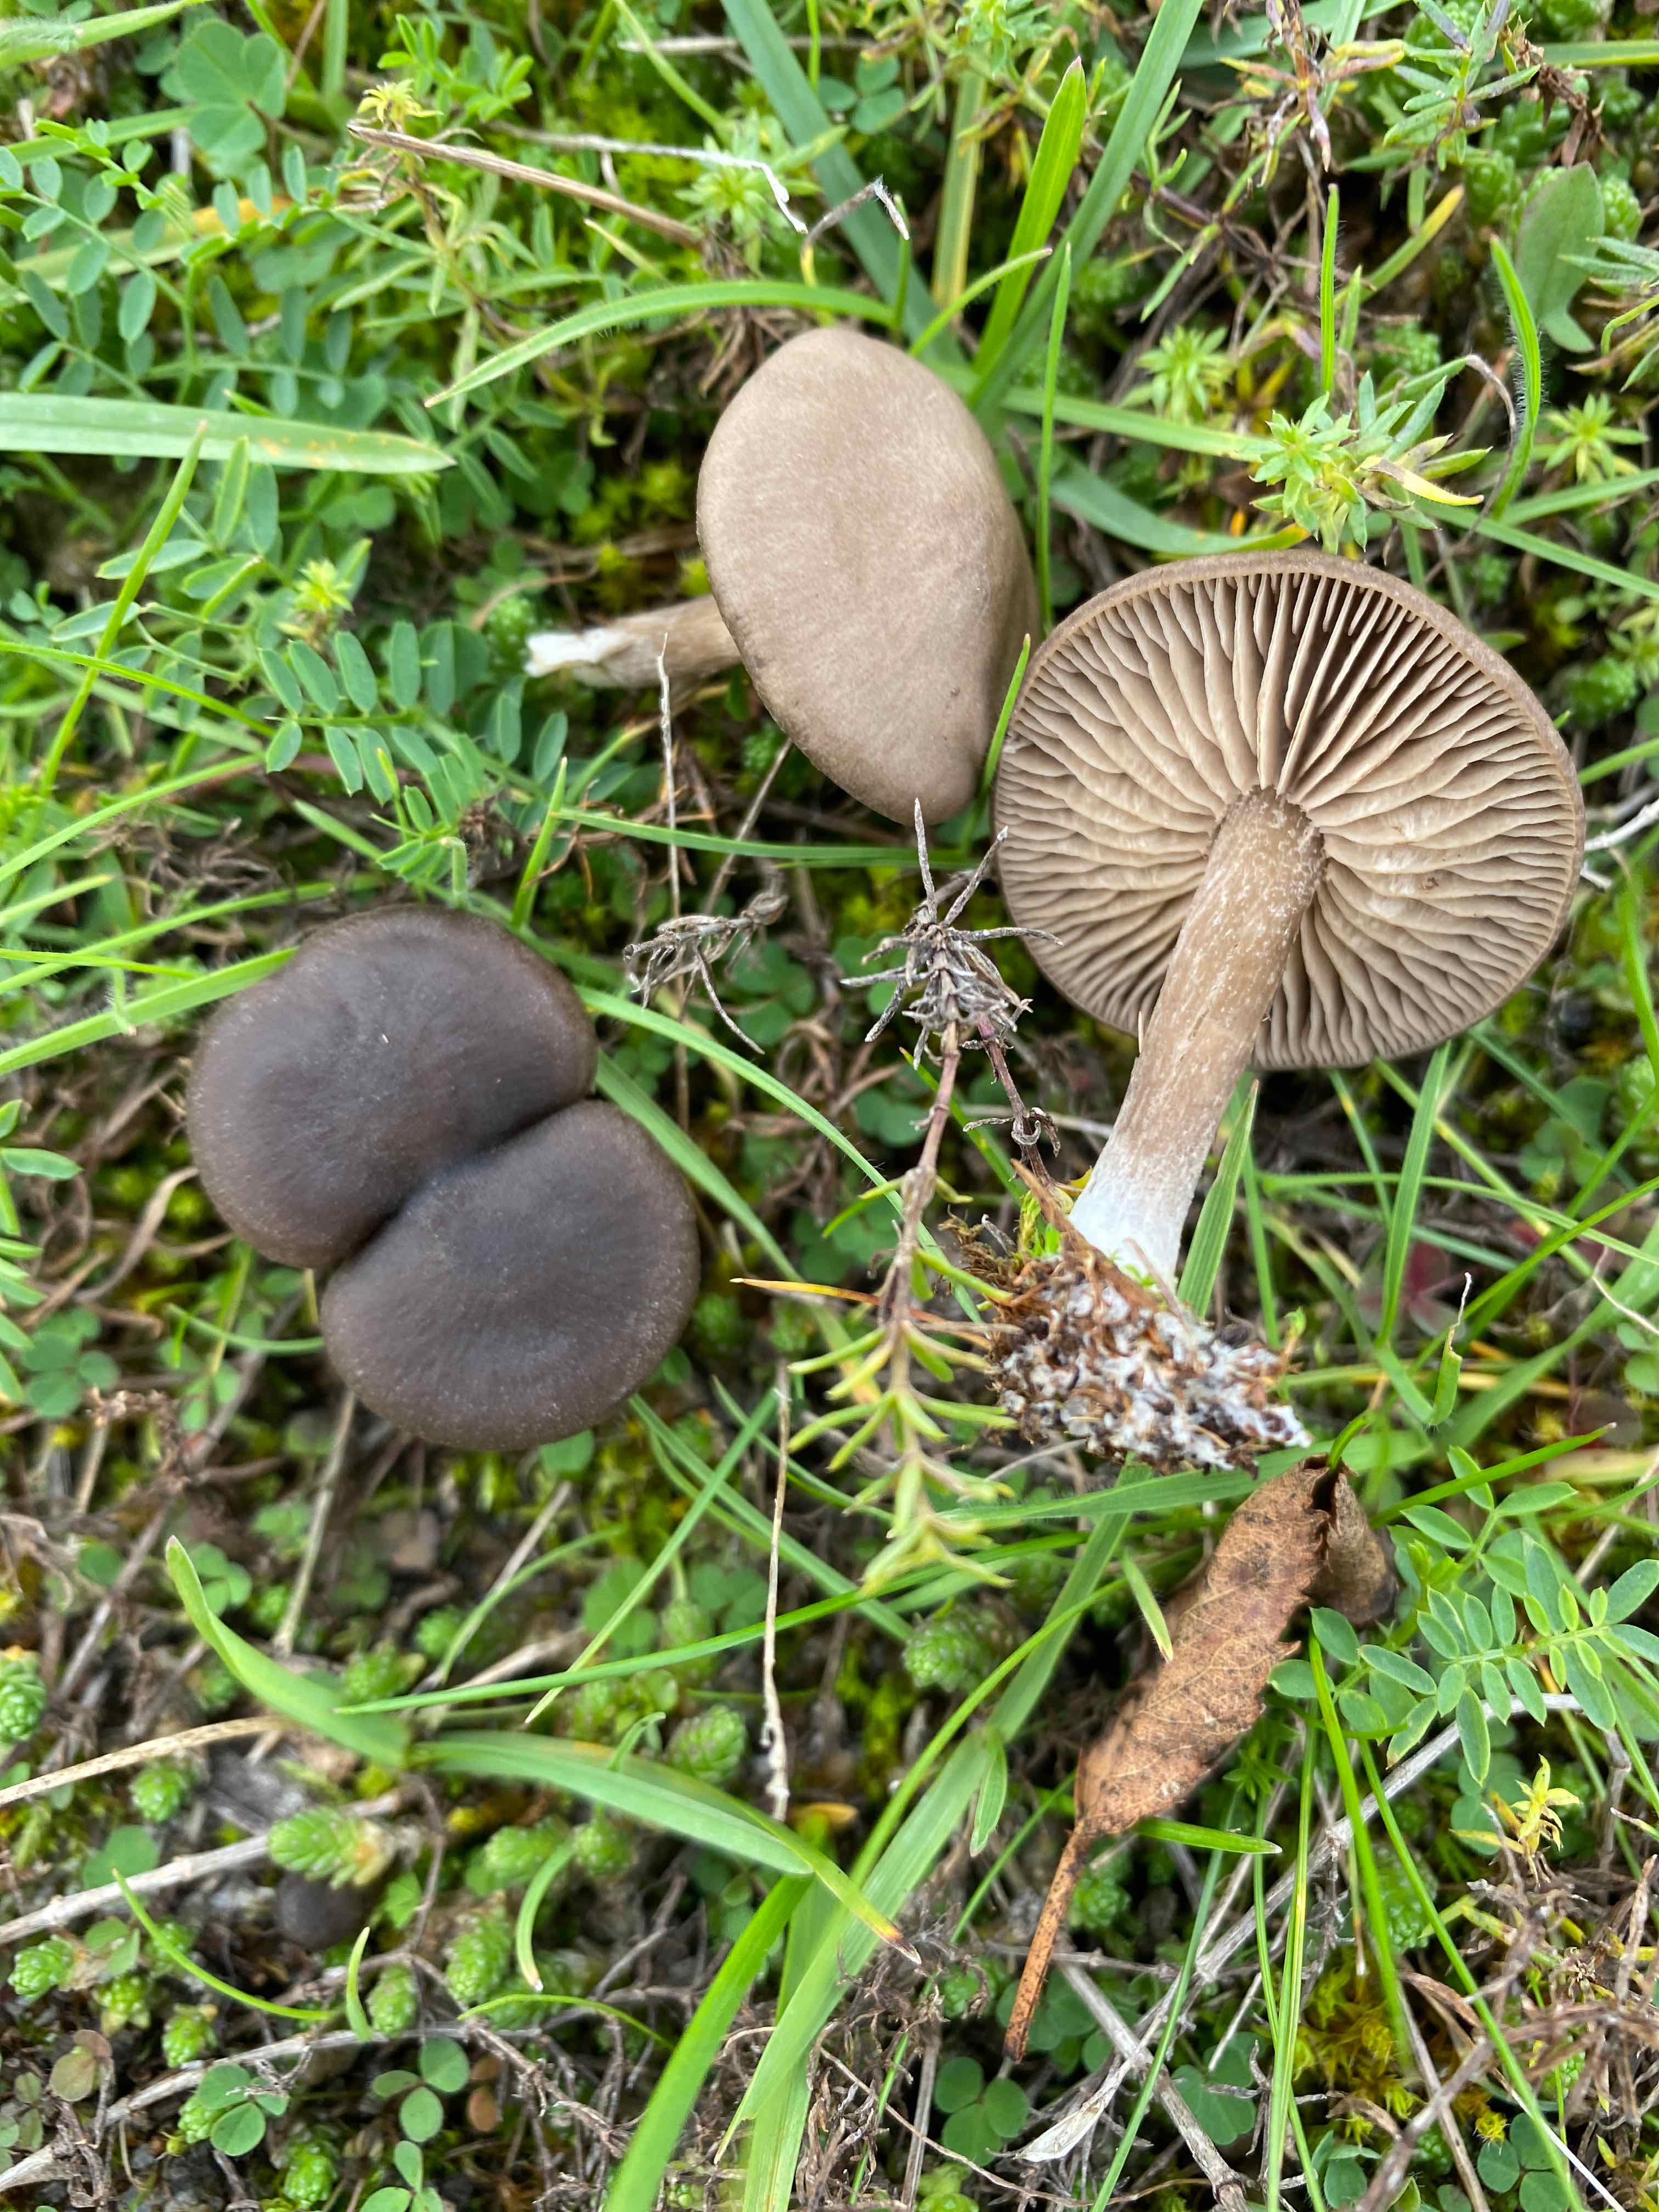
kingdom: Fungi
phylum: Basidiomycota
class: Agaricomycetes
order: Agaricales
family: Entolomataceae
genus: Entoloma
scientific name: Entoloma vindobonense
